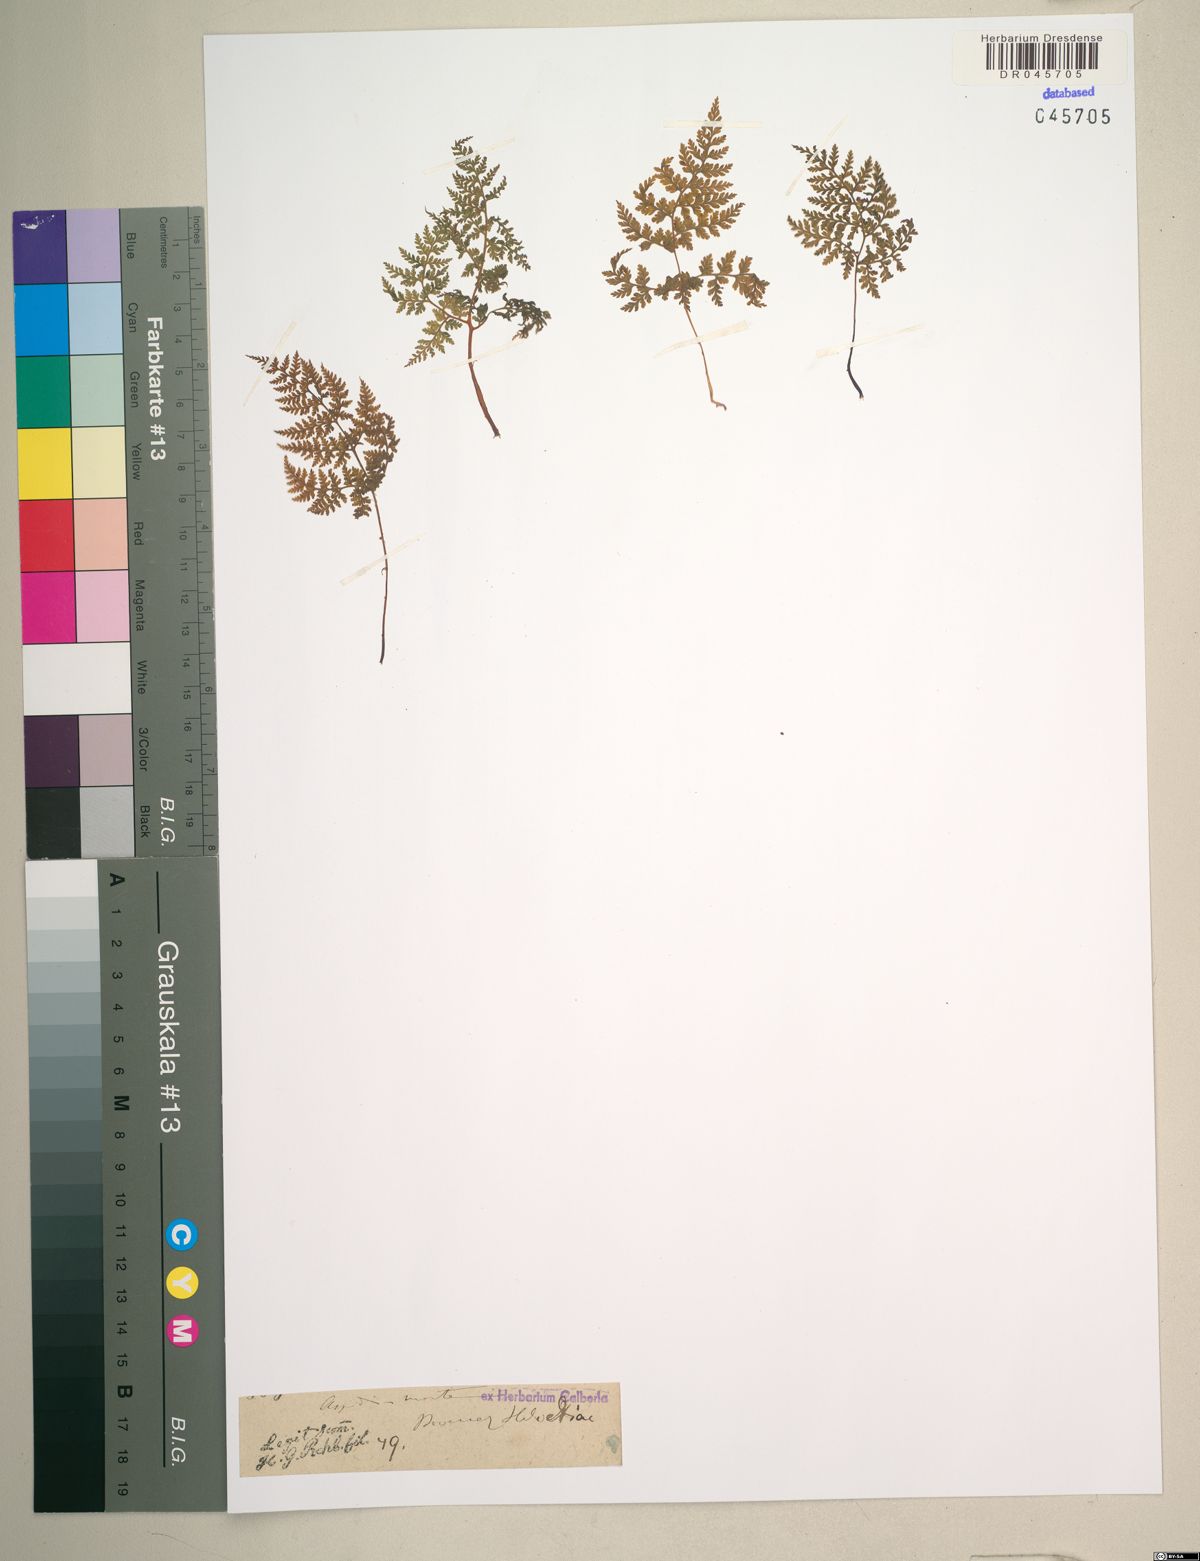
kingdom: Plantae
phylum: Tracheophyta
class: Polypodiopsida
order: Polypodiales
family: Cystopteridaceae
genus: Cystopteris
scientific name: Cystopteris montana
